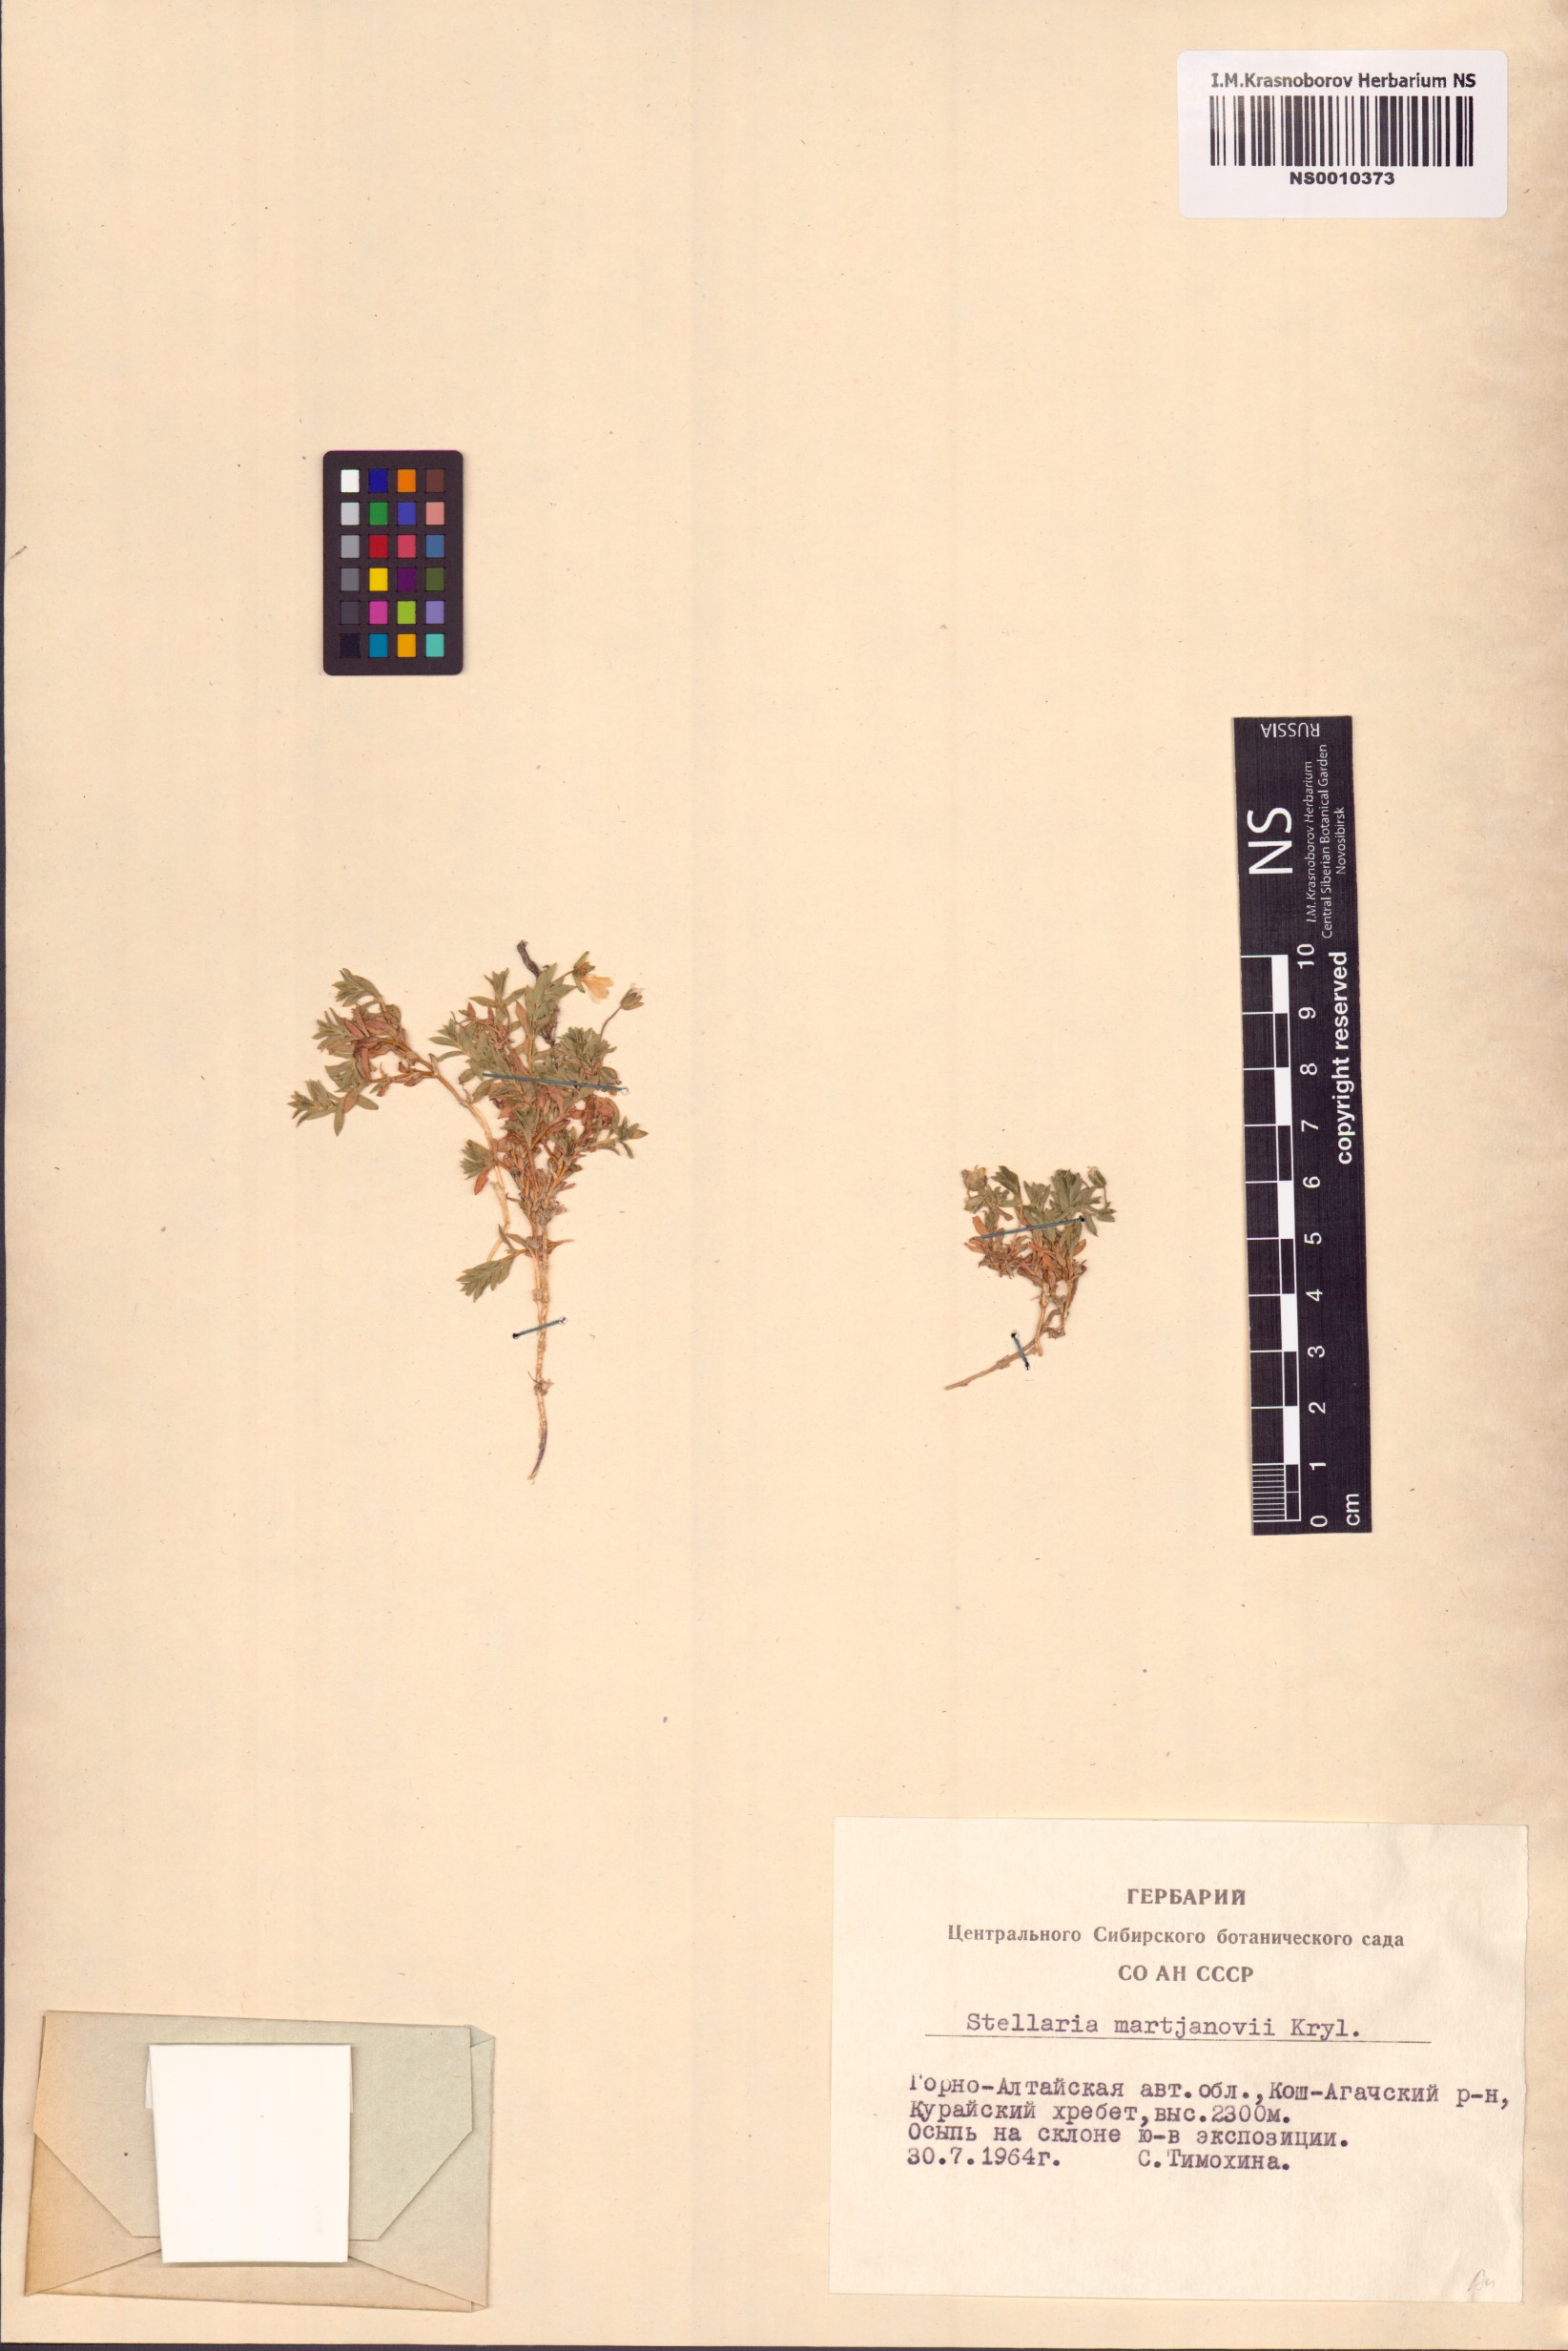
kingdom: Plantae
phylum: Tracheophyta
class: Magnoliopsida
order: Caryophyllales
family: Caryophyllaceae
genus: Mesostemma
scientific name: Mesostemma martjanovii
